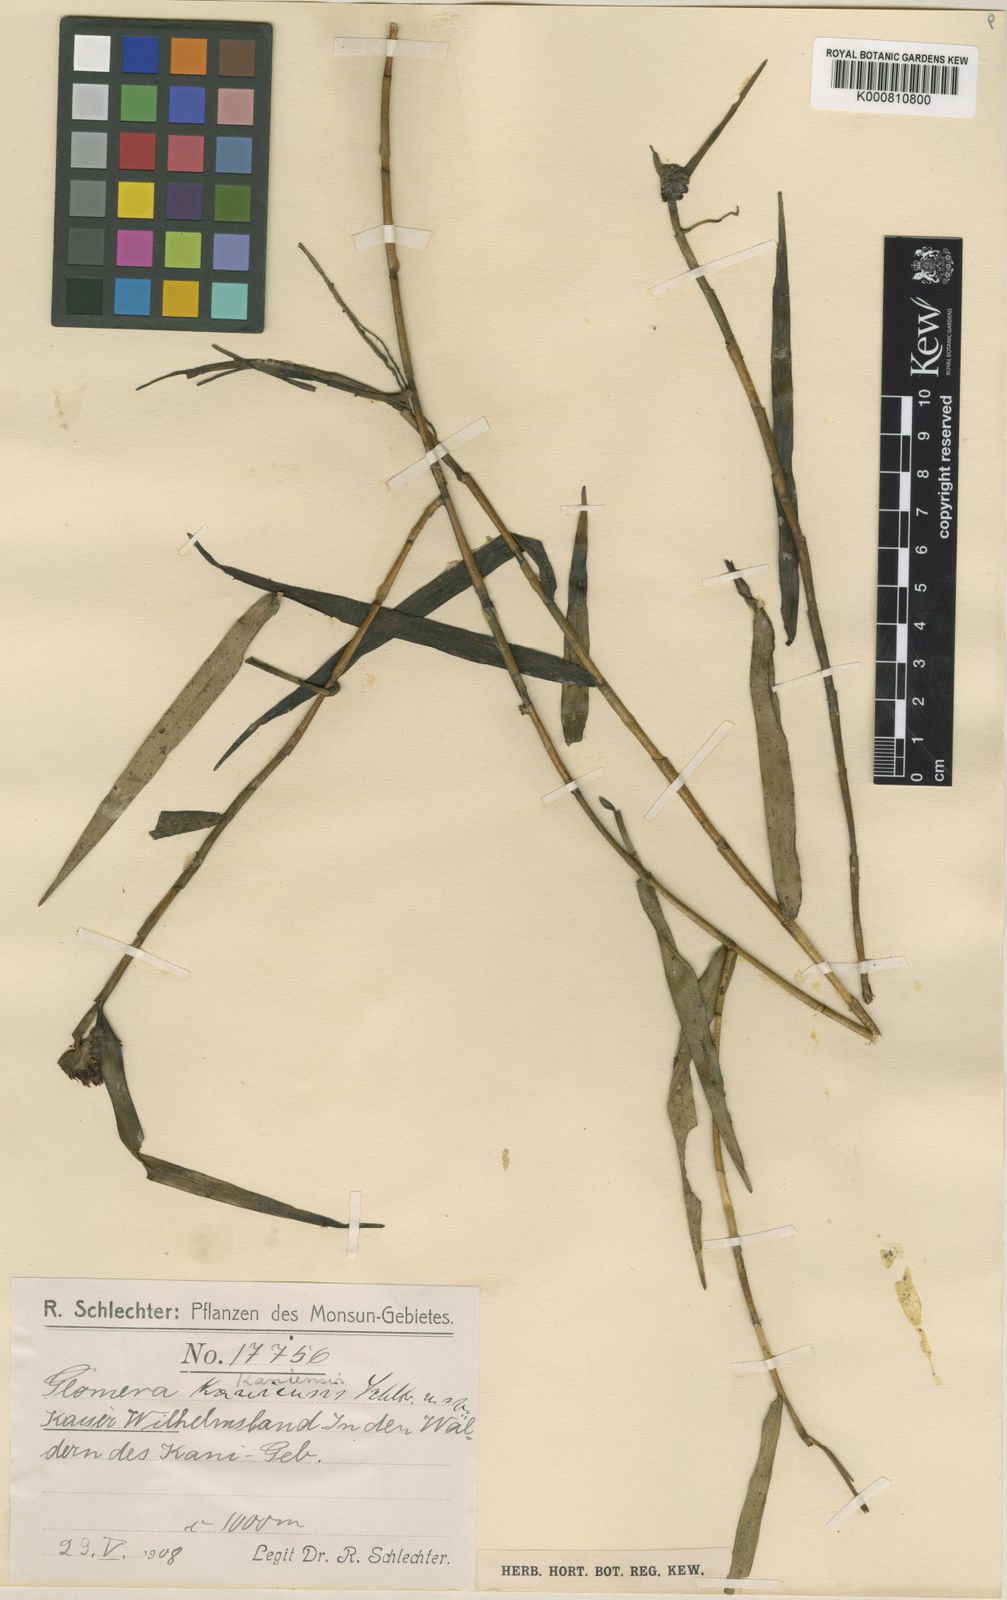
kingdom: Plantae
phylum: Tracheophyta
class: Liliopsida
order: Asparagales
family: Orchidaceae
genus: Glomera
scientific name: Glomera kaniensis
